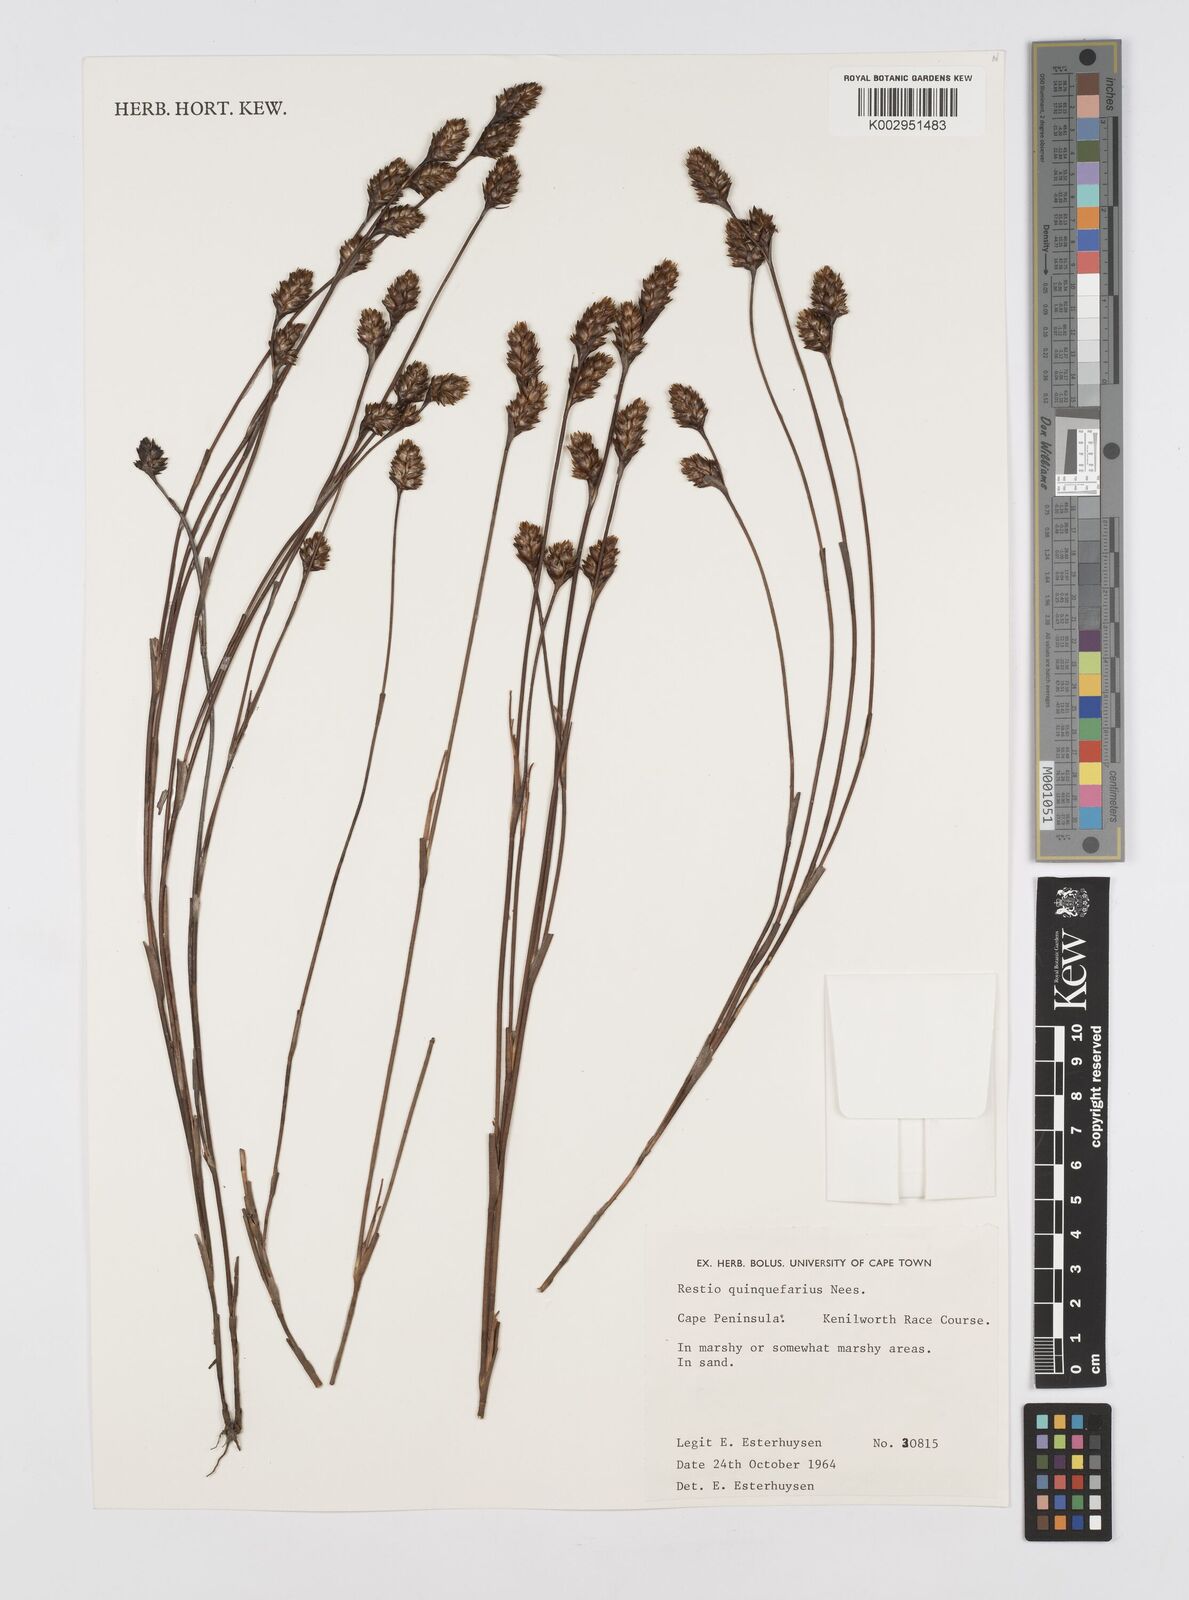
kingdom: Plantae
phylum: Tracheophyta
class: Liliopsida
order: Poales
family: Restionaceae
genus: Restio
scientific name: Restio quinquefarius
